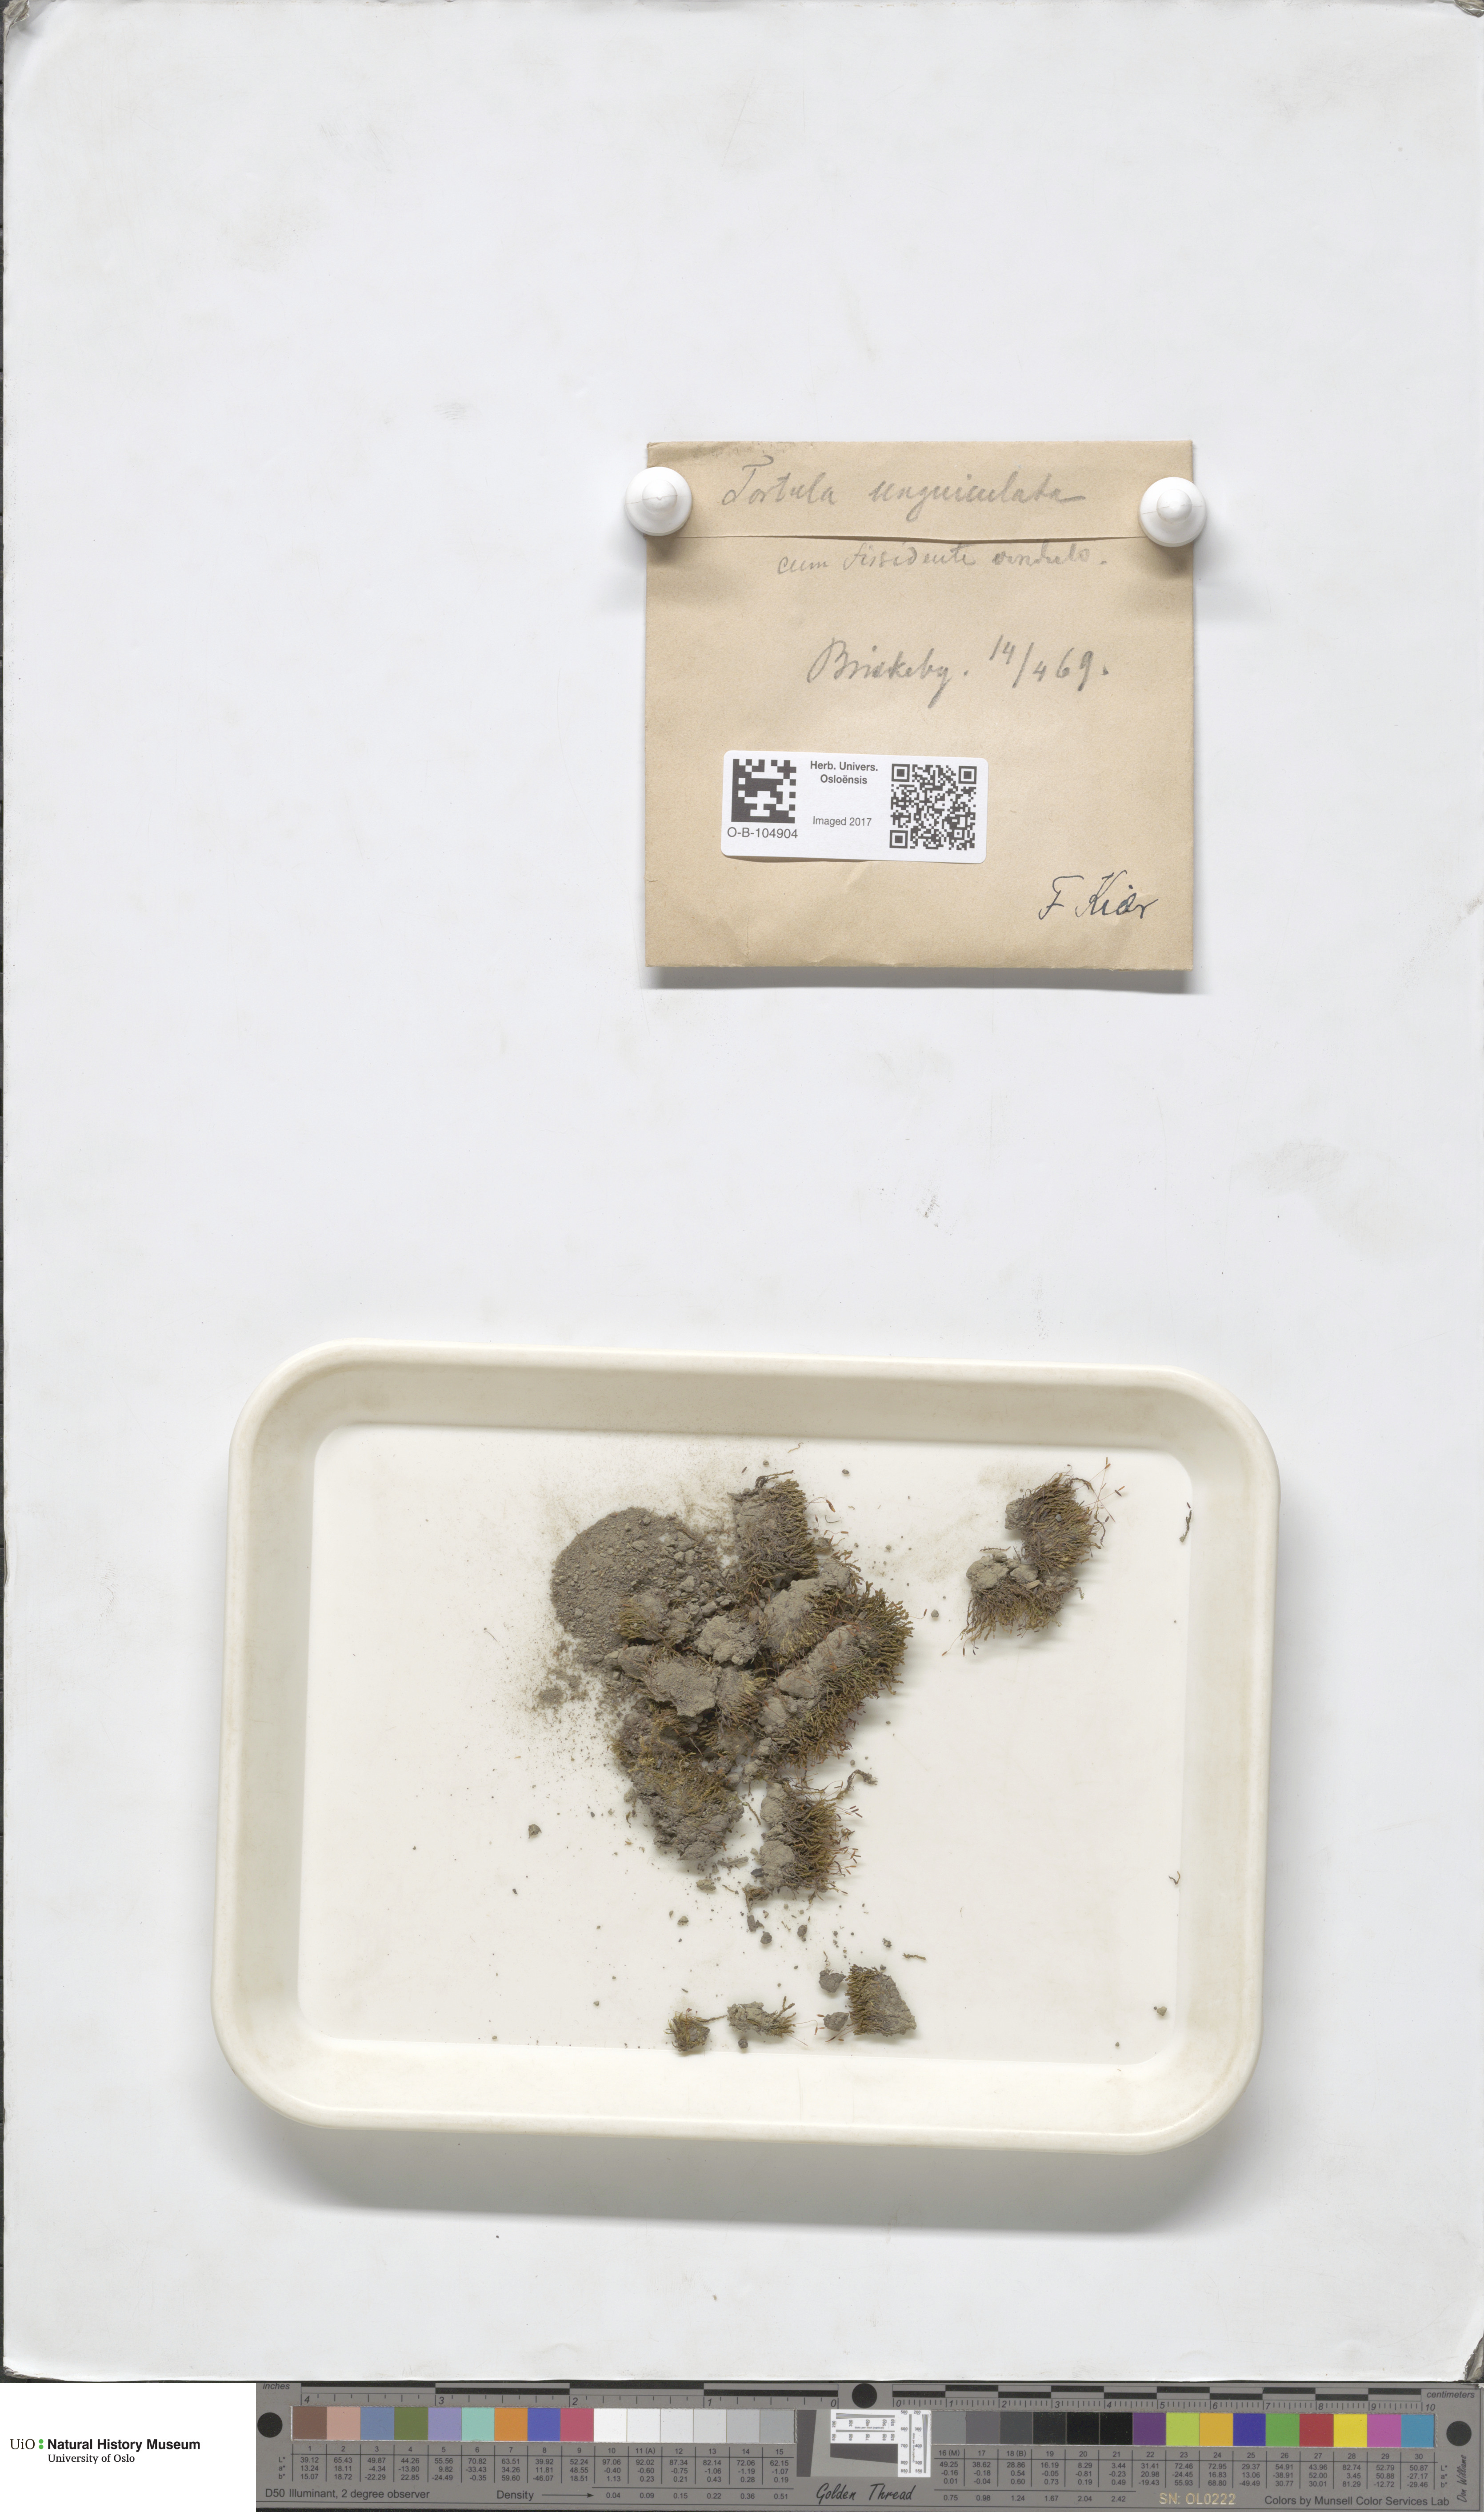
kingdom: Plantae
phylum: Bryophyta
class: Bryopsida
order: Pottiales
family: Pottiaceae
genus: Barbula
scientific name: Barbula unguiculata
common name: Prickly beard moss
